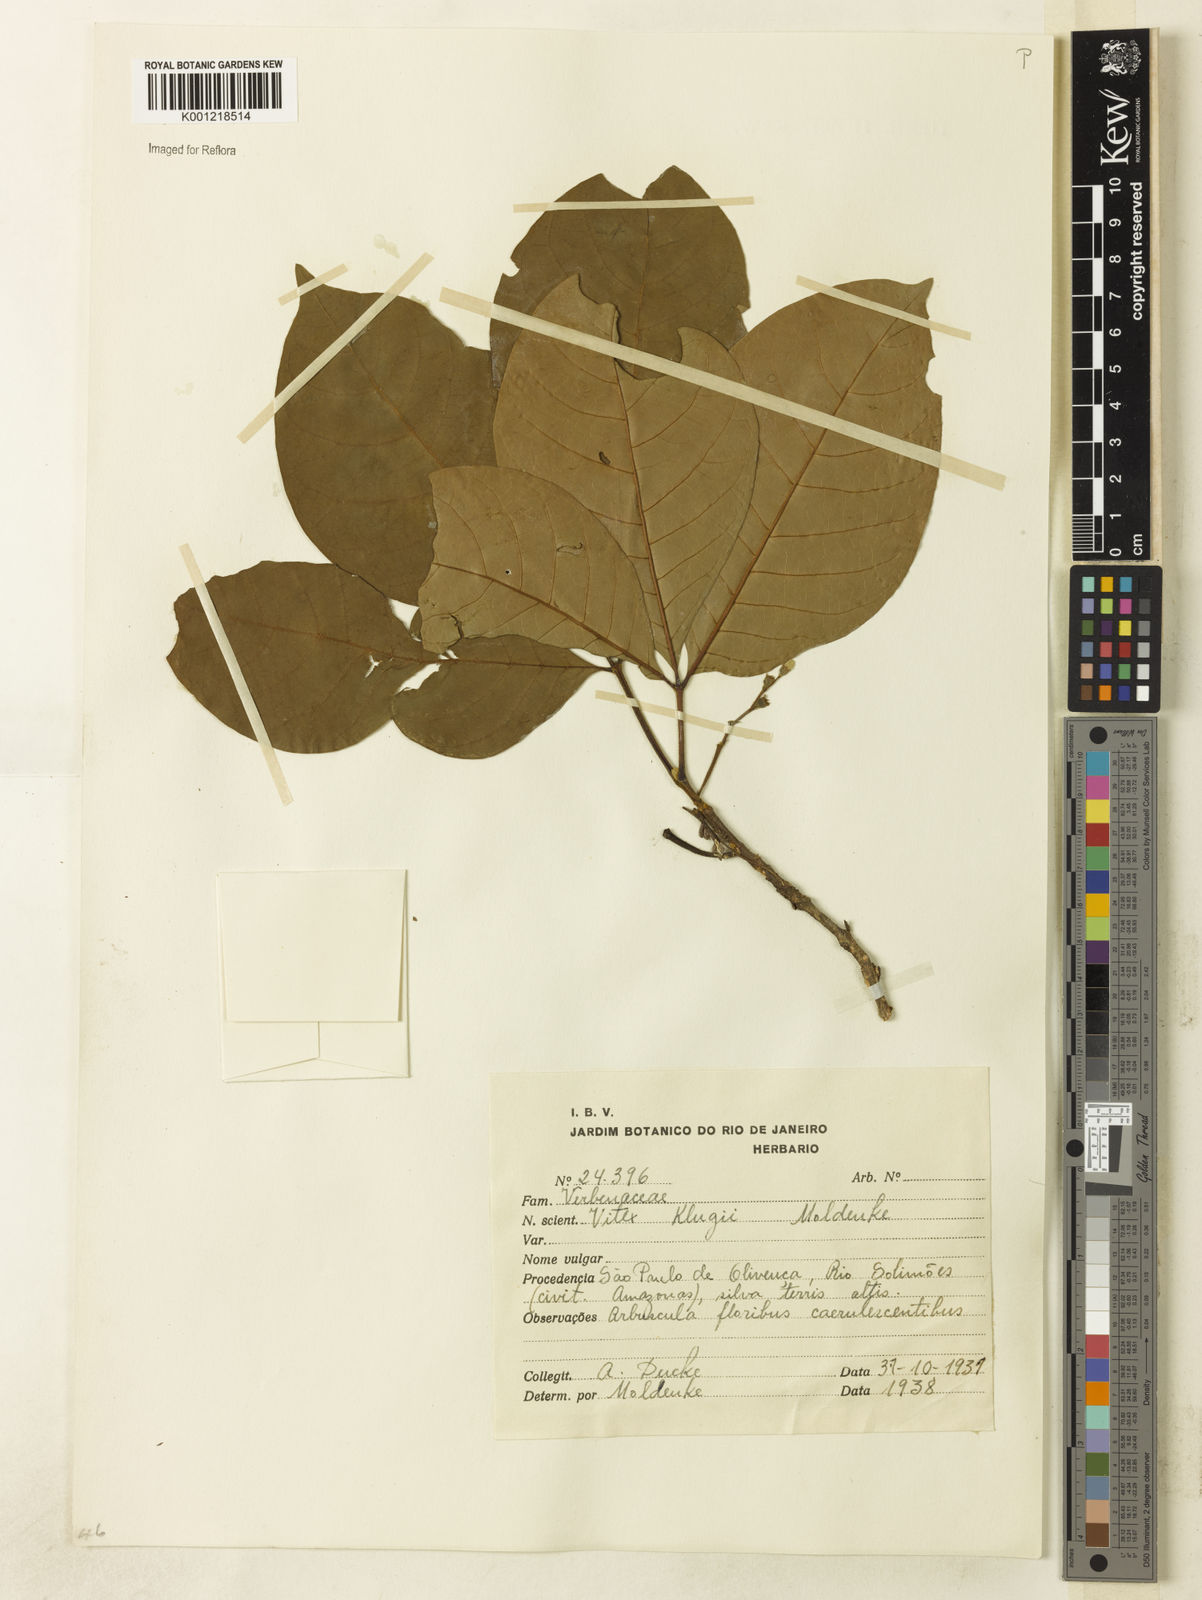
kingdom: Plantae
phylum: Tracheophyta
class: Magnoliopsida
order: Lamiales
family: Lamiaceae
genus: Vitex
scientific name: Vitex klugii
